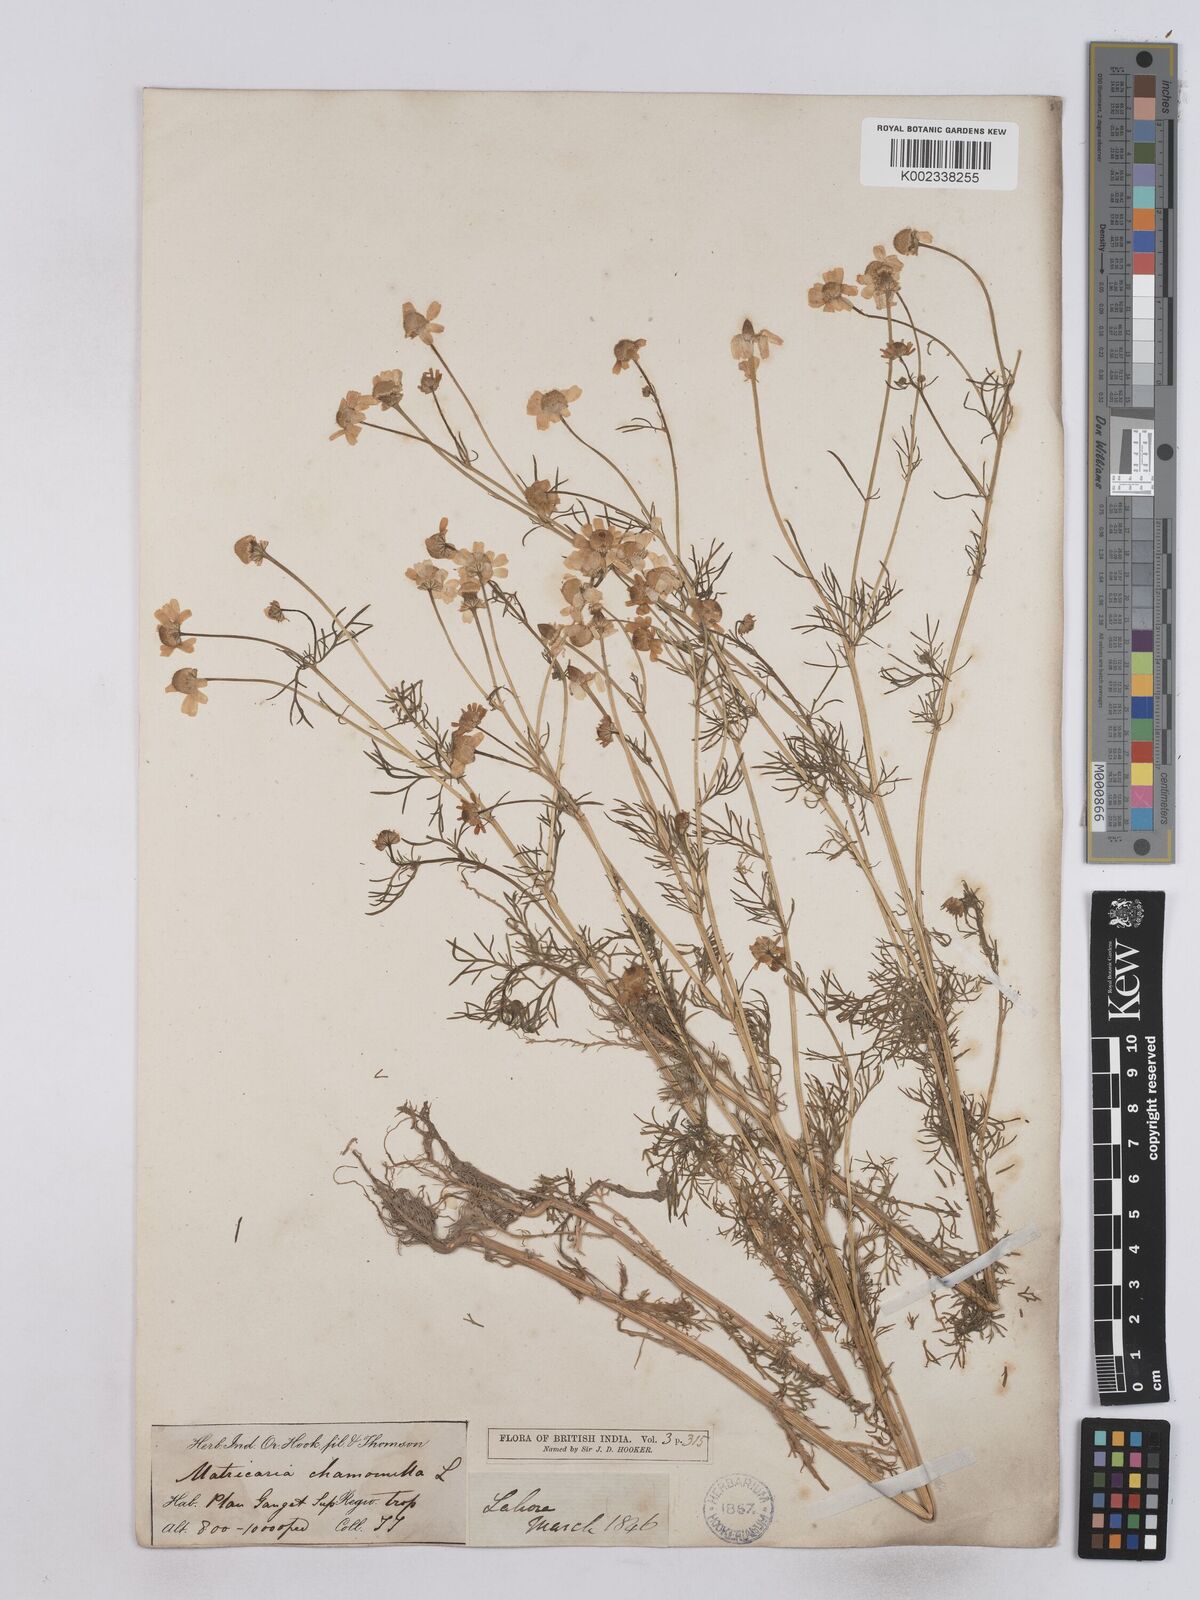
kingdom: Plantae
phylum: Tracheophyta
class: Magnoliopsida
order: Asterales
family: Asteraceae
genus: Matricaria
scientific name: Matricaria chamomilla
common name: Scented mayweed
